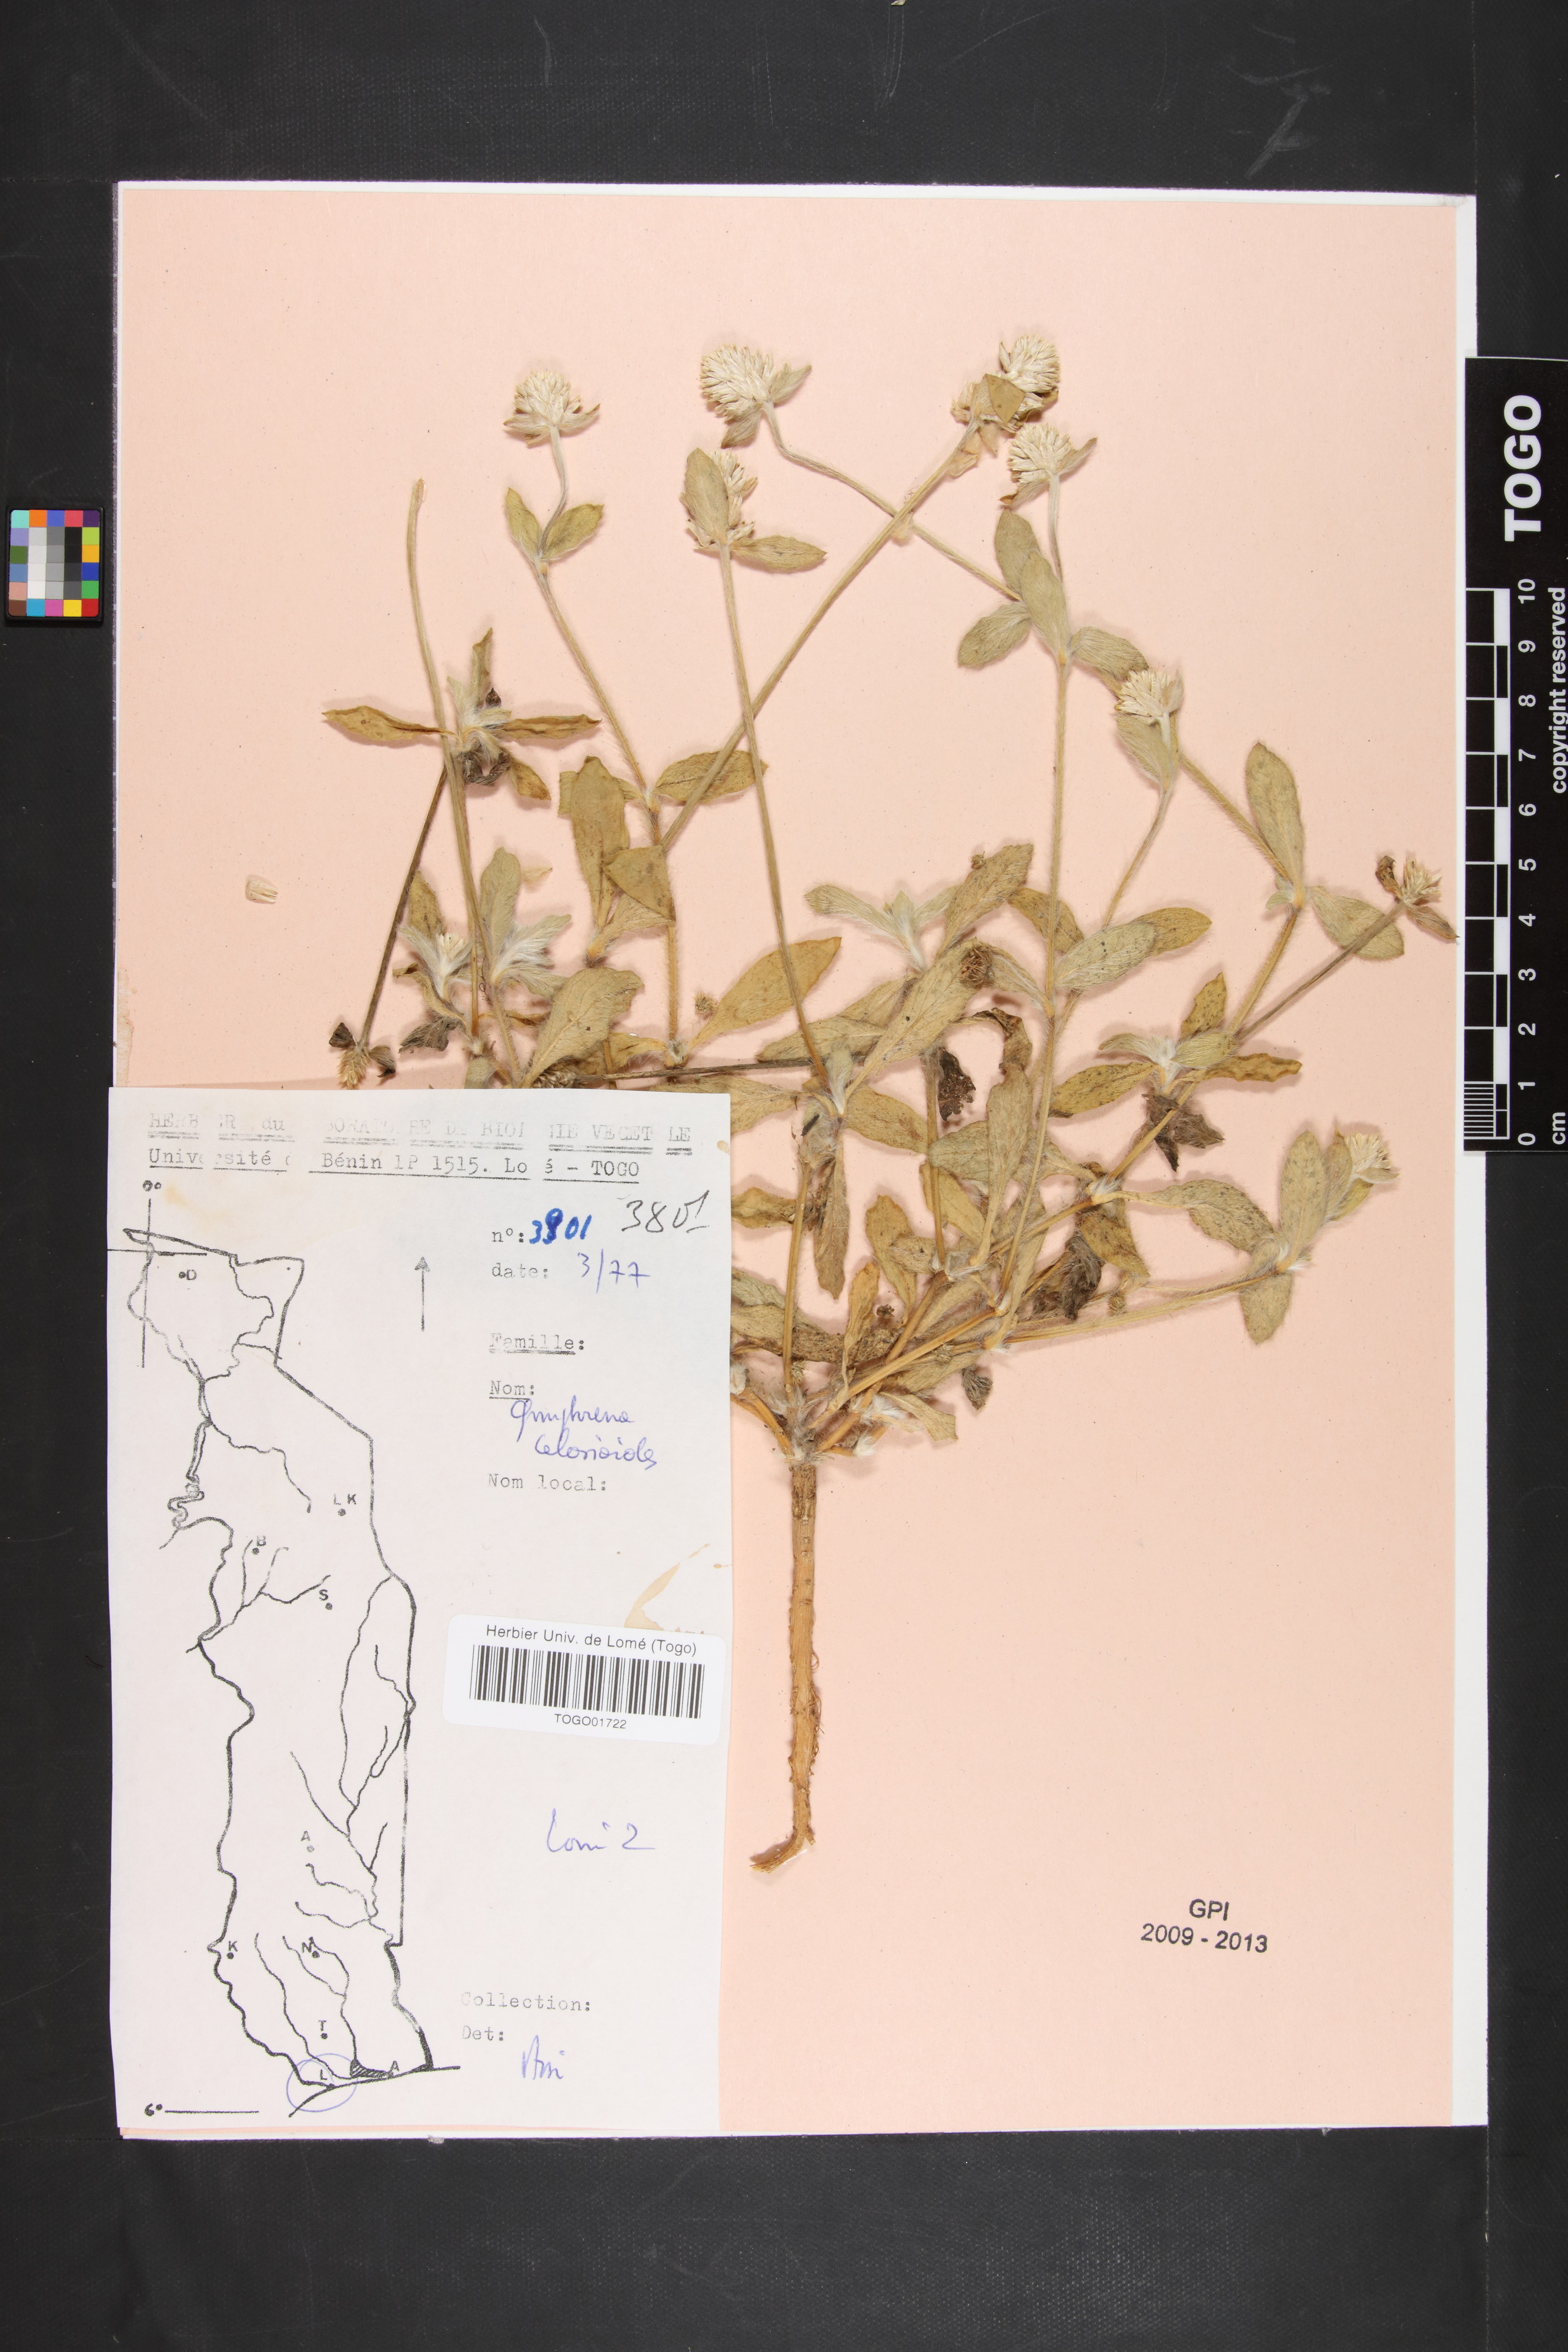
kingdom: Plantae
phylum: Tracheophyta
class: Magnoliopsida
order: Caryophyllales
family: Amaranthaceae
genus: Gomphrena
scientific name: Gomphrena celosioides
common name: Gomphrena-weed
